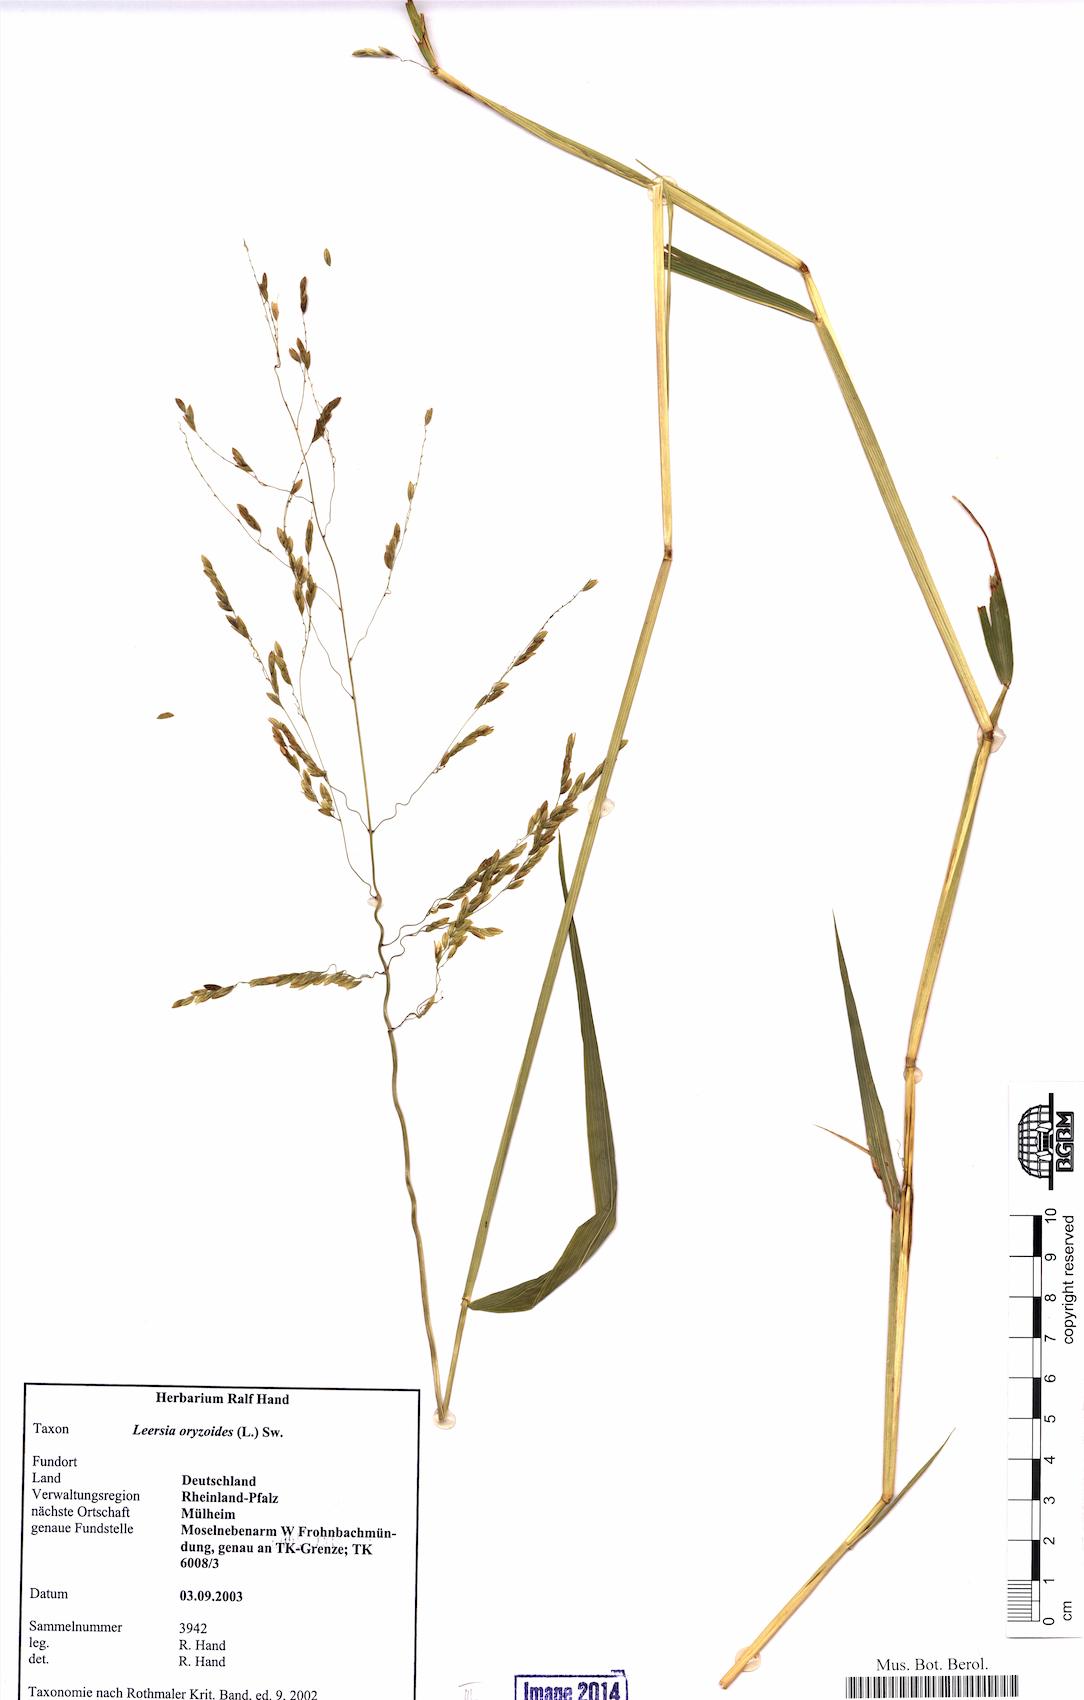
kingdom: Plantae
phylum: Tracheophyta
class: Liliopsida
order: Poales
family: Poaceae
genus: Leersia
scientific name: Leersia oryzoides
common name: Cut-grass
